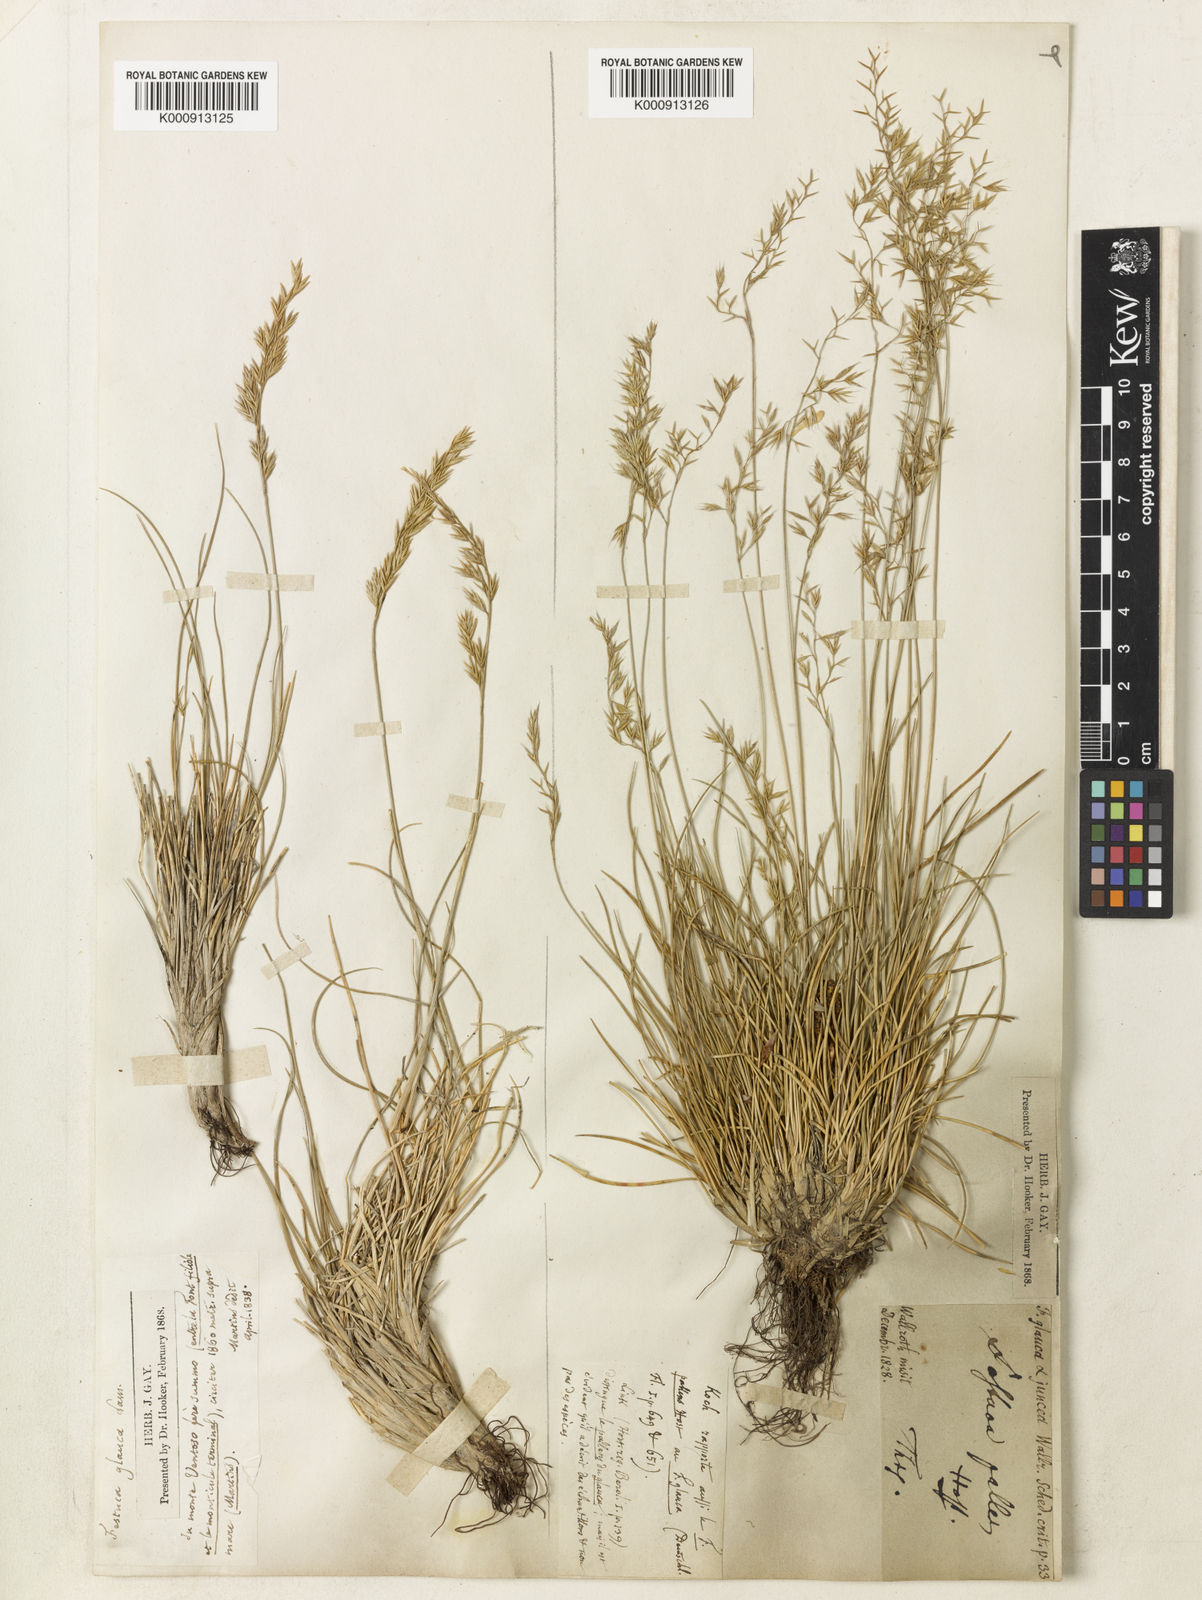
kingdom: Plantae
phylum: Tracheophyta
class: Liliopsida
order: Poales
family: Poaceae
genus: Festuca
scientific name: Festuca ovina
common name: Sheep fescue
